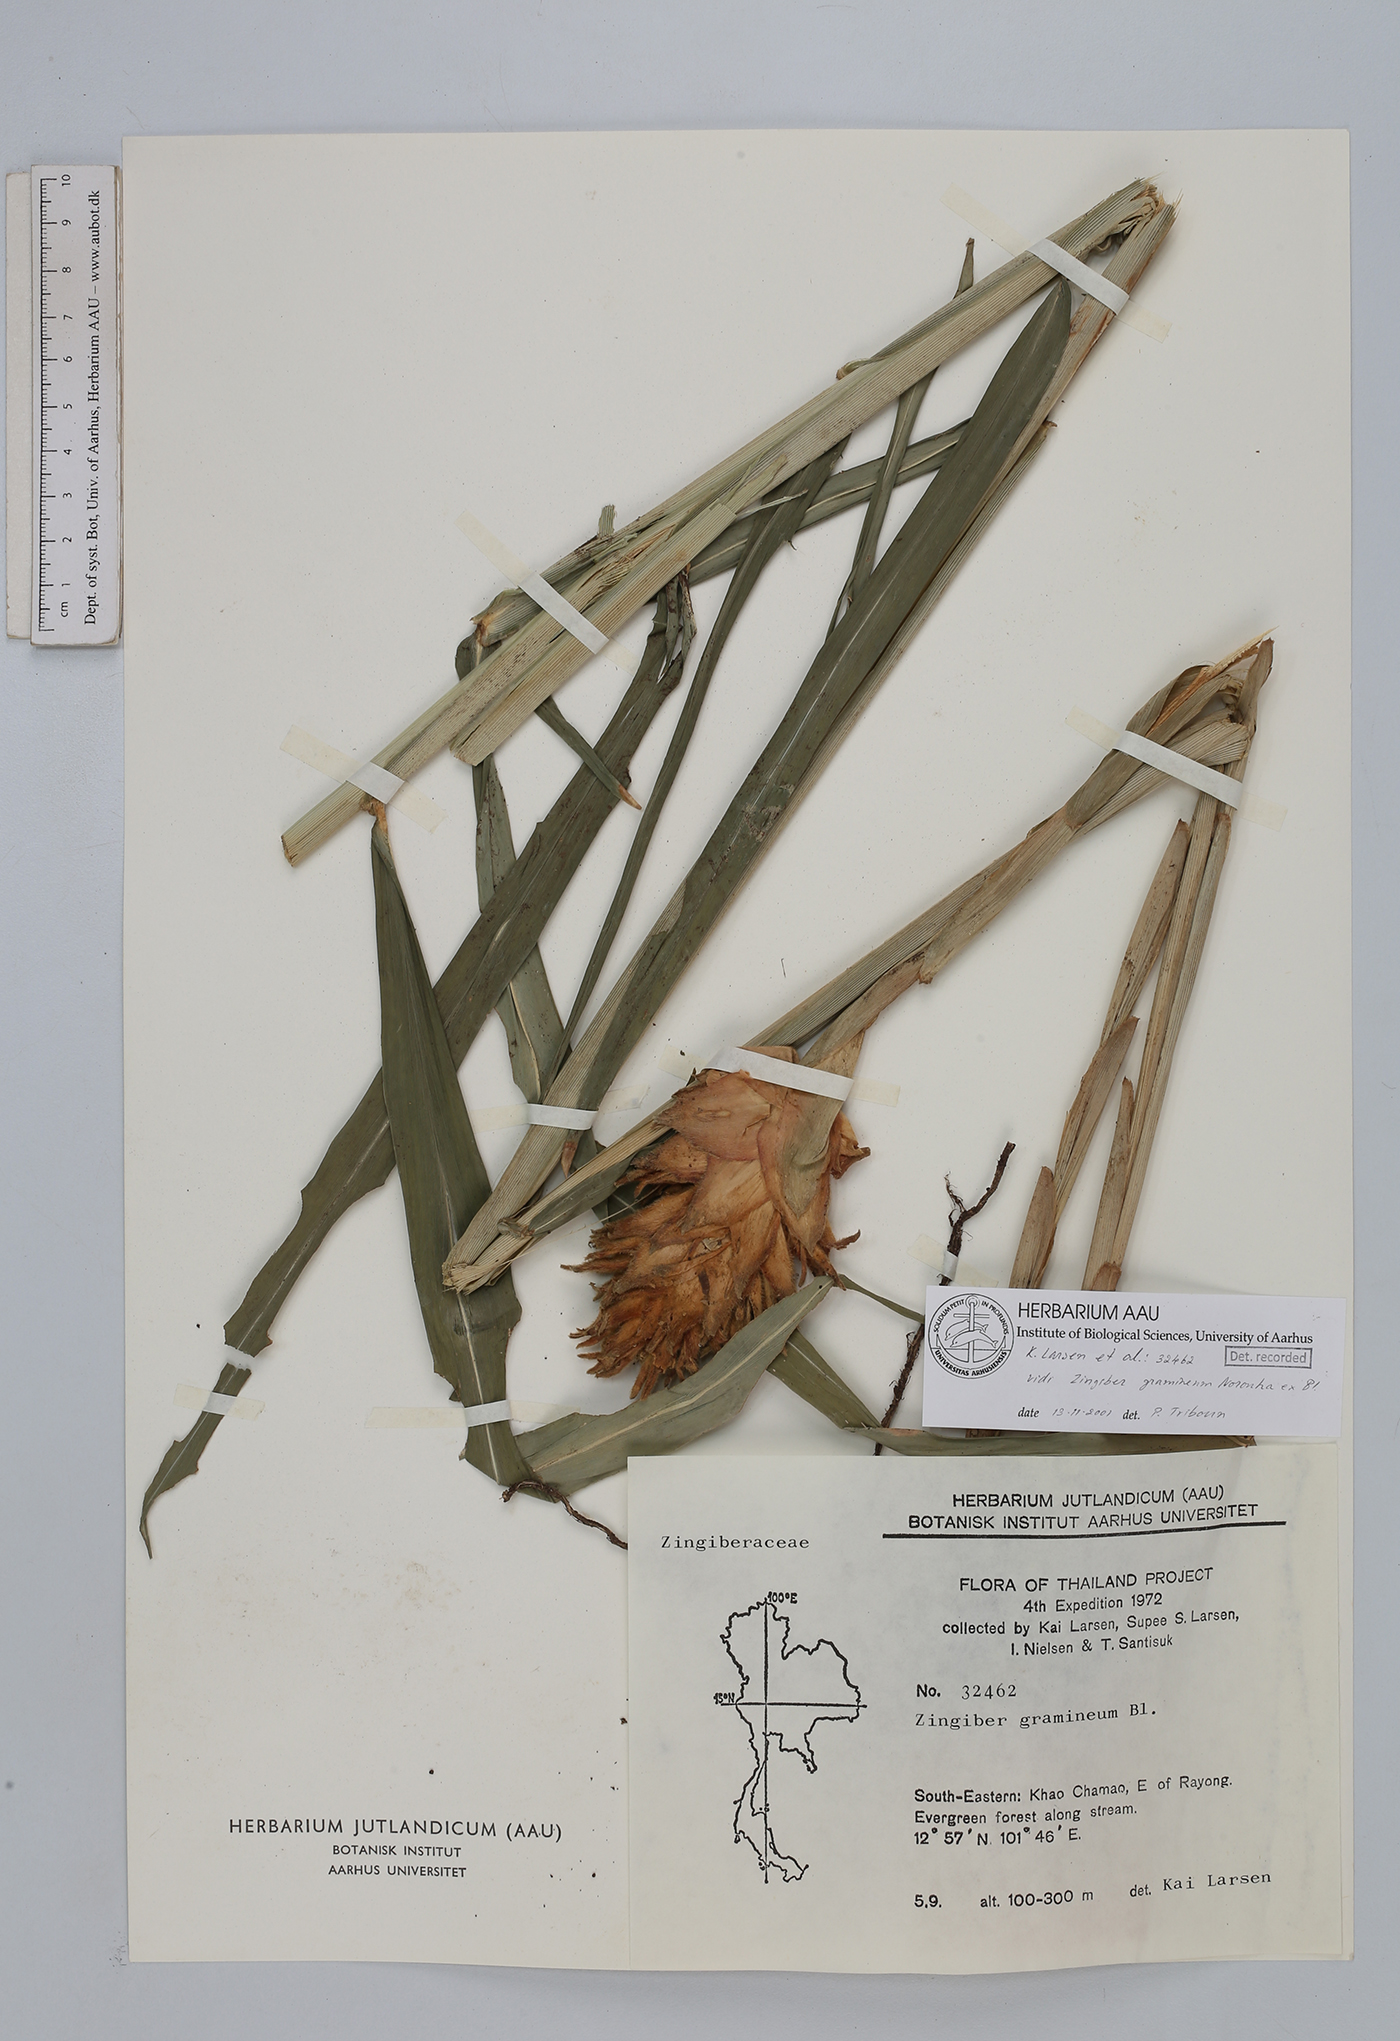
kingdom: Plantae
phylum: Tracheophyta
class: Liliopsida
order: Zingiberales
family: Zingiberaceae
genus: Zingiber
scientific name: Zingiber gramineum
